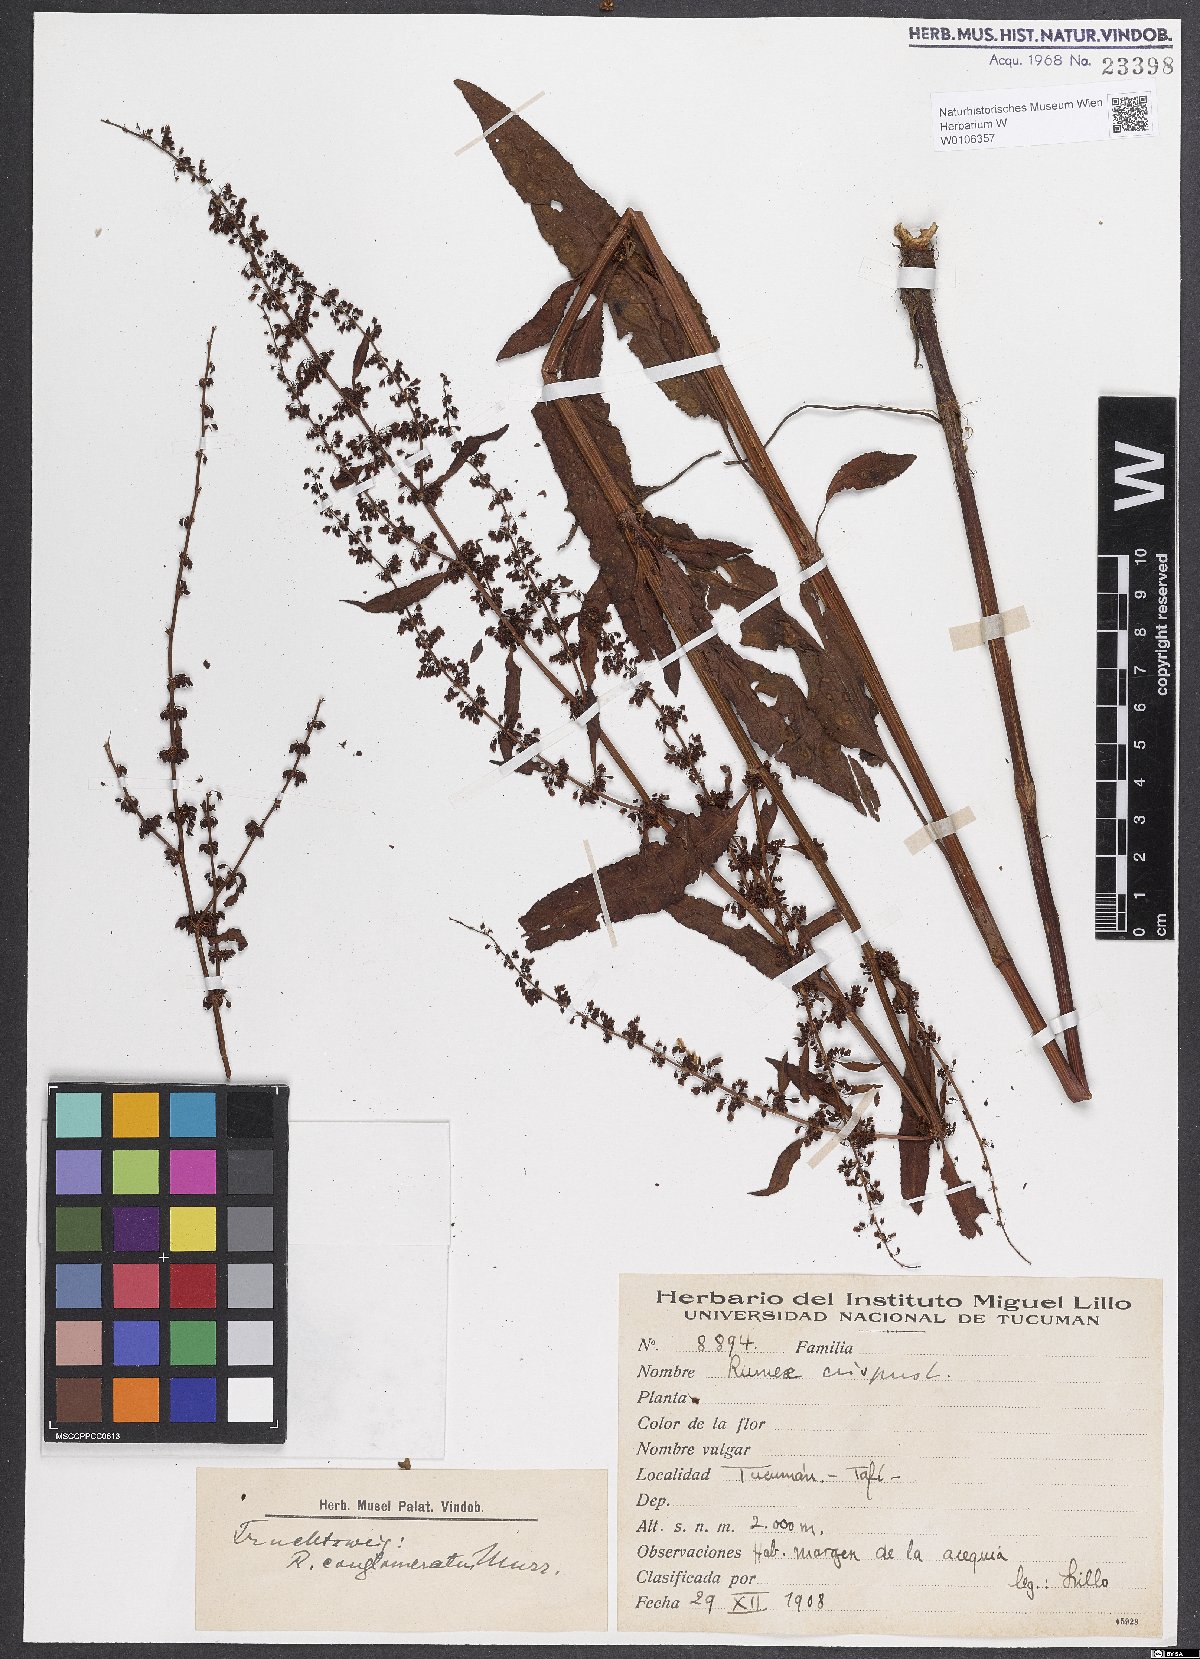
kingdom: Plantae
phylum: Tracheophyta
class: Magnoliopsida
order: Caryophyllales
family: Polygonaceae
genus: Rumex
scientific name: Rumex crispus
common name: Curled dock
